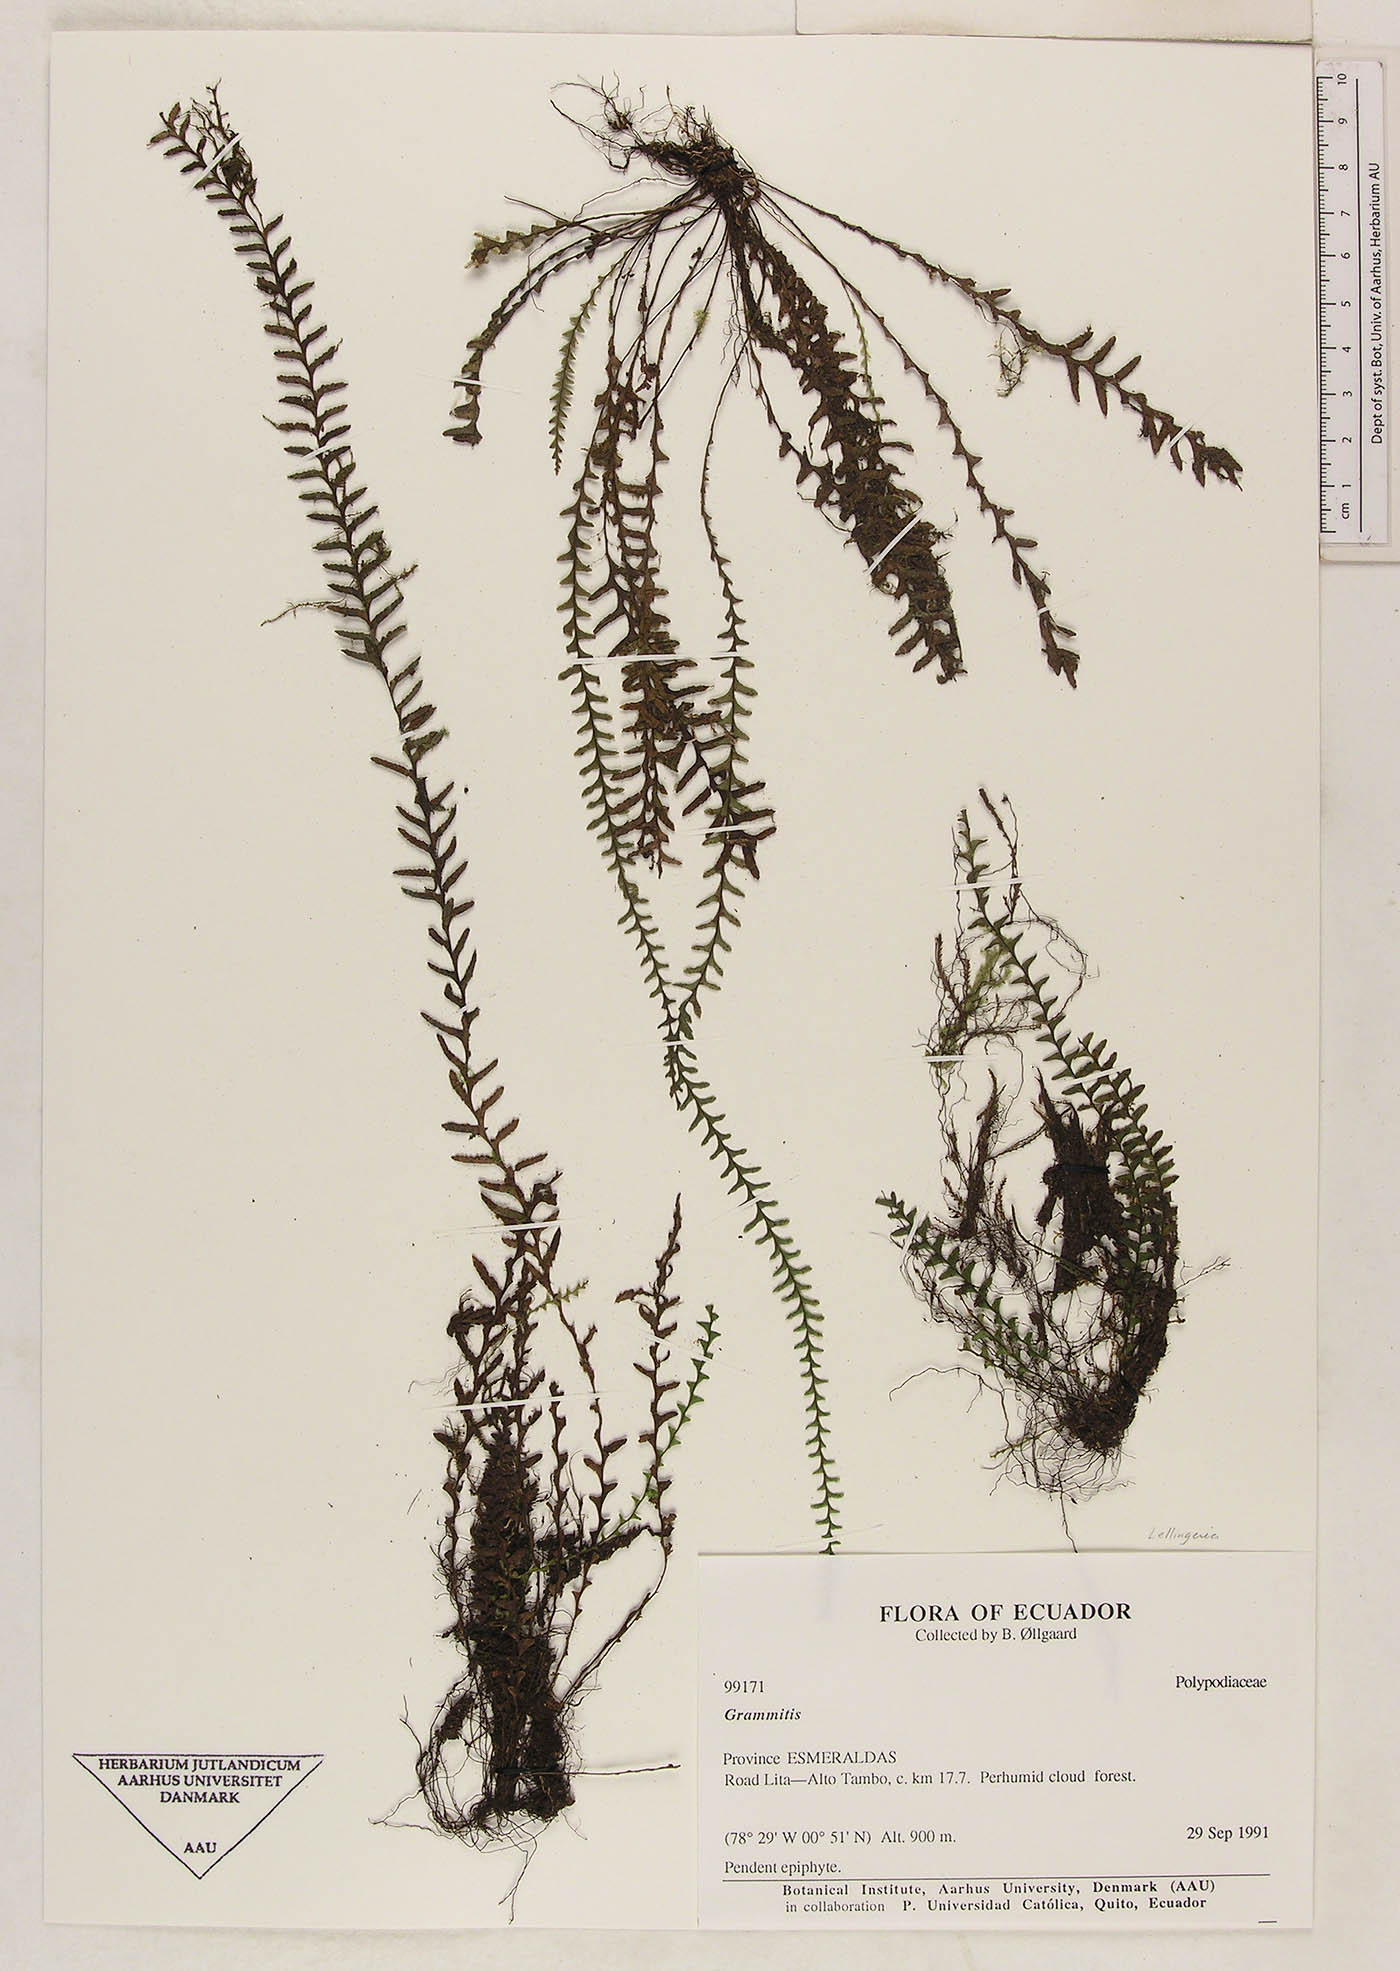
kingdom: Plantae
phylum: Tracheophyta
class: Polypodiopsida
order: Polypodiales
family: Polypodiaceae
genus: Lellingeria
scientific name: Lellingeria suspensa
